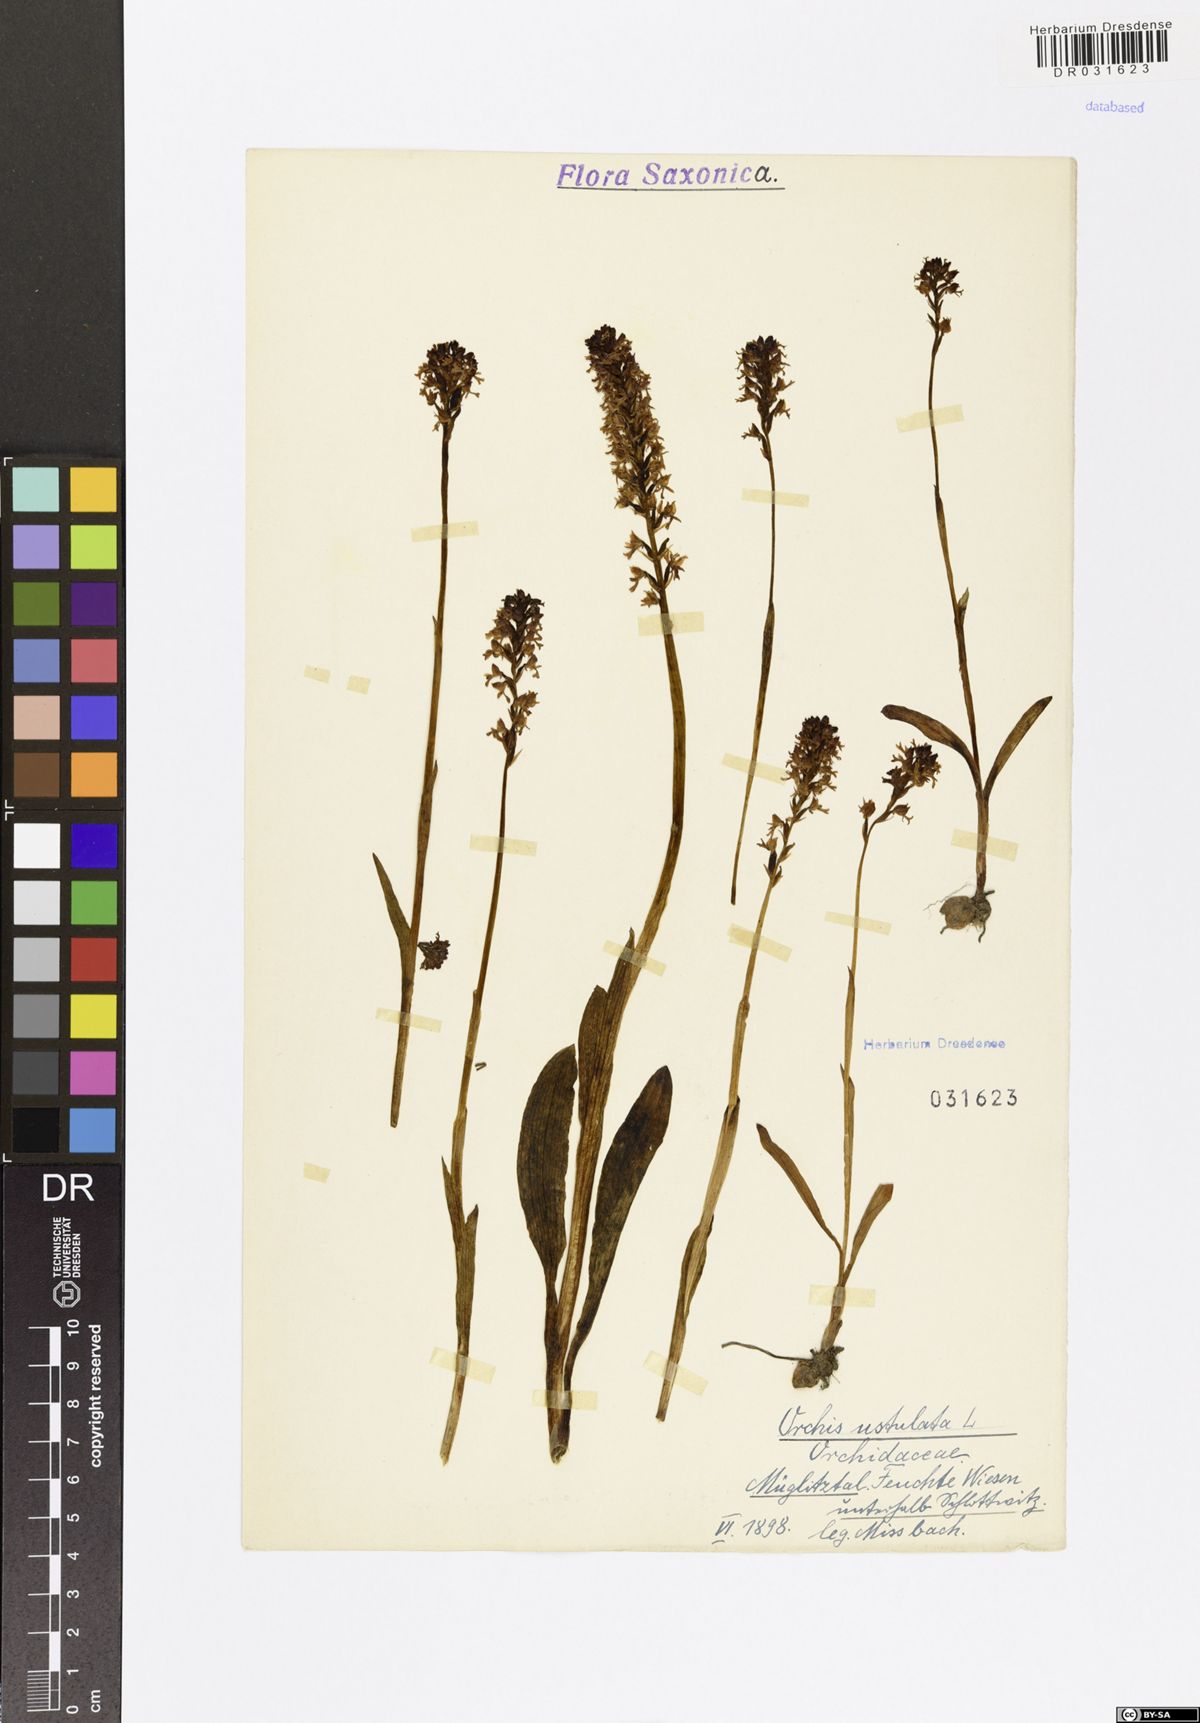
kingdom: Plantae
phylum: Tracheophyta
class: Liliopsida
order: Asparagales
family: Orchidaceae
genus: Neotinea
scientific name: Neotinea ustulata
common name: Burnt orchid
